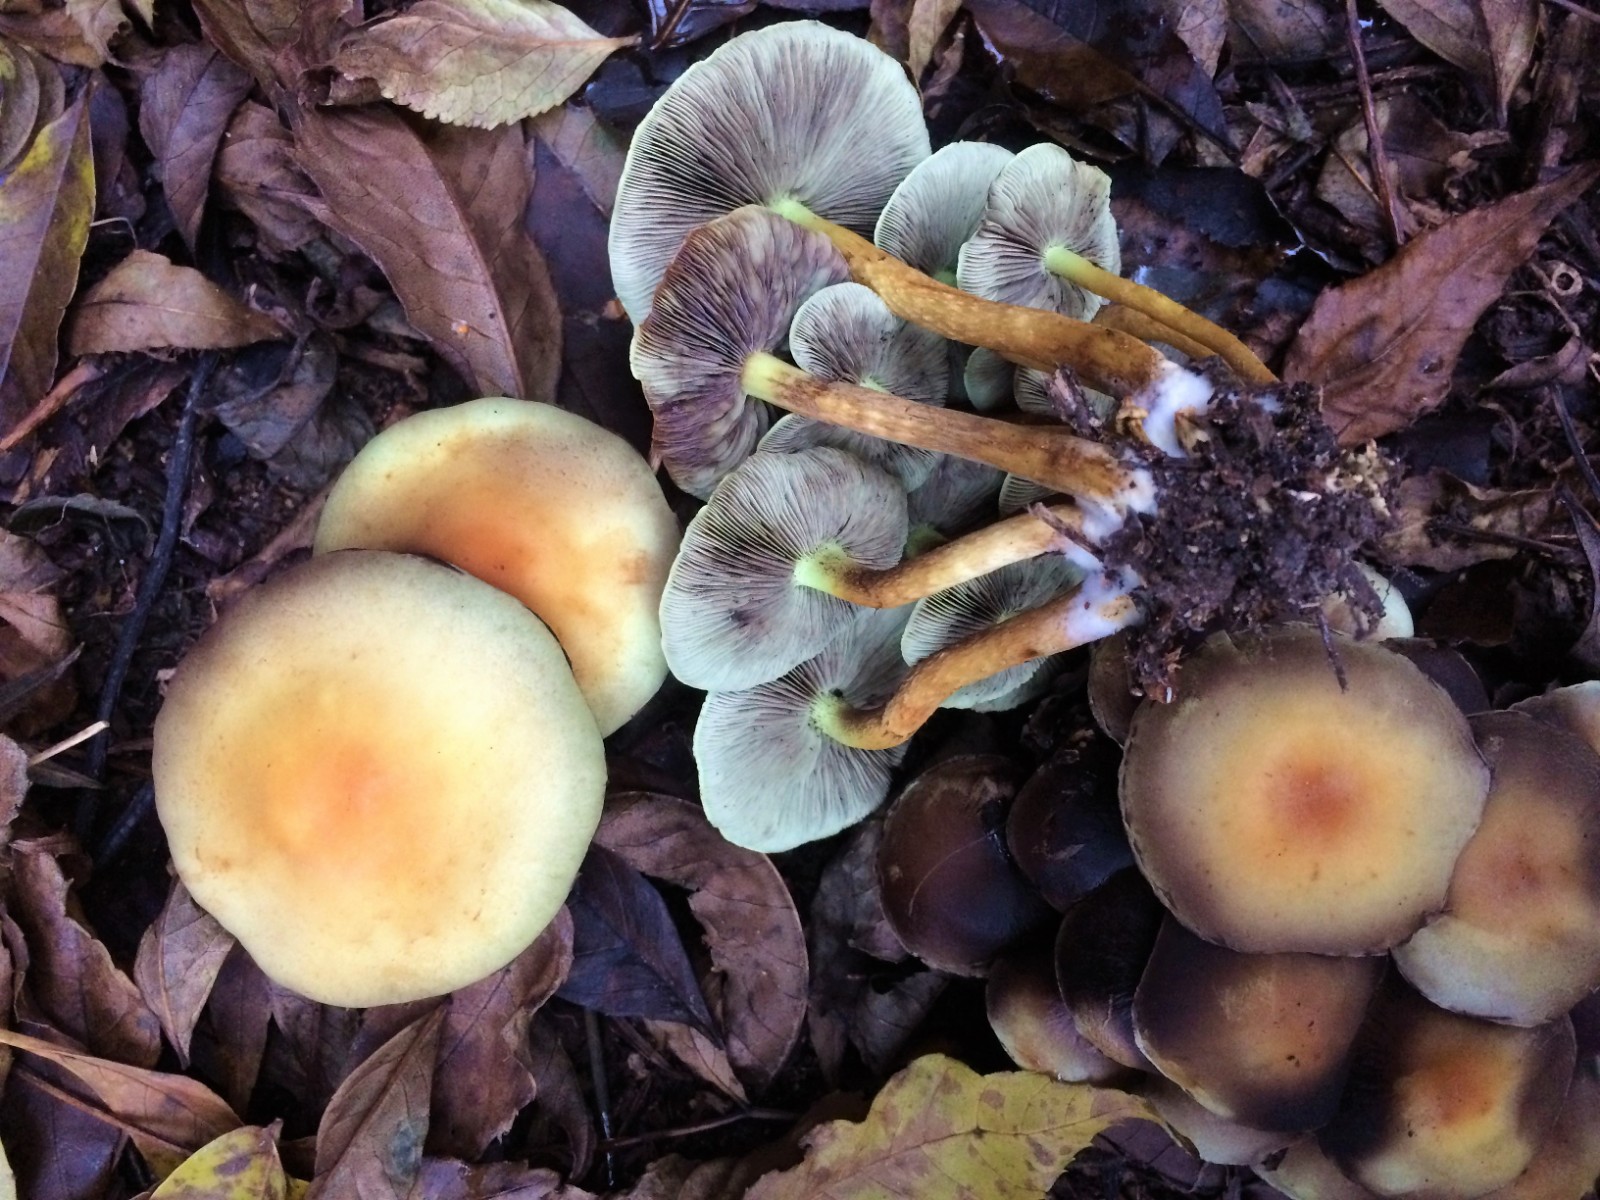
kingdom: Fungi
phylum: Basidiomycota
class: Agaricomycetes
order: Agaricales
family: Strophariaceae
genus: Hypholoma
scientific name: Hypholoma fasciculare
